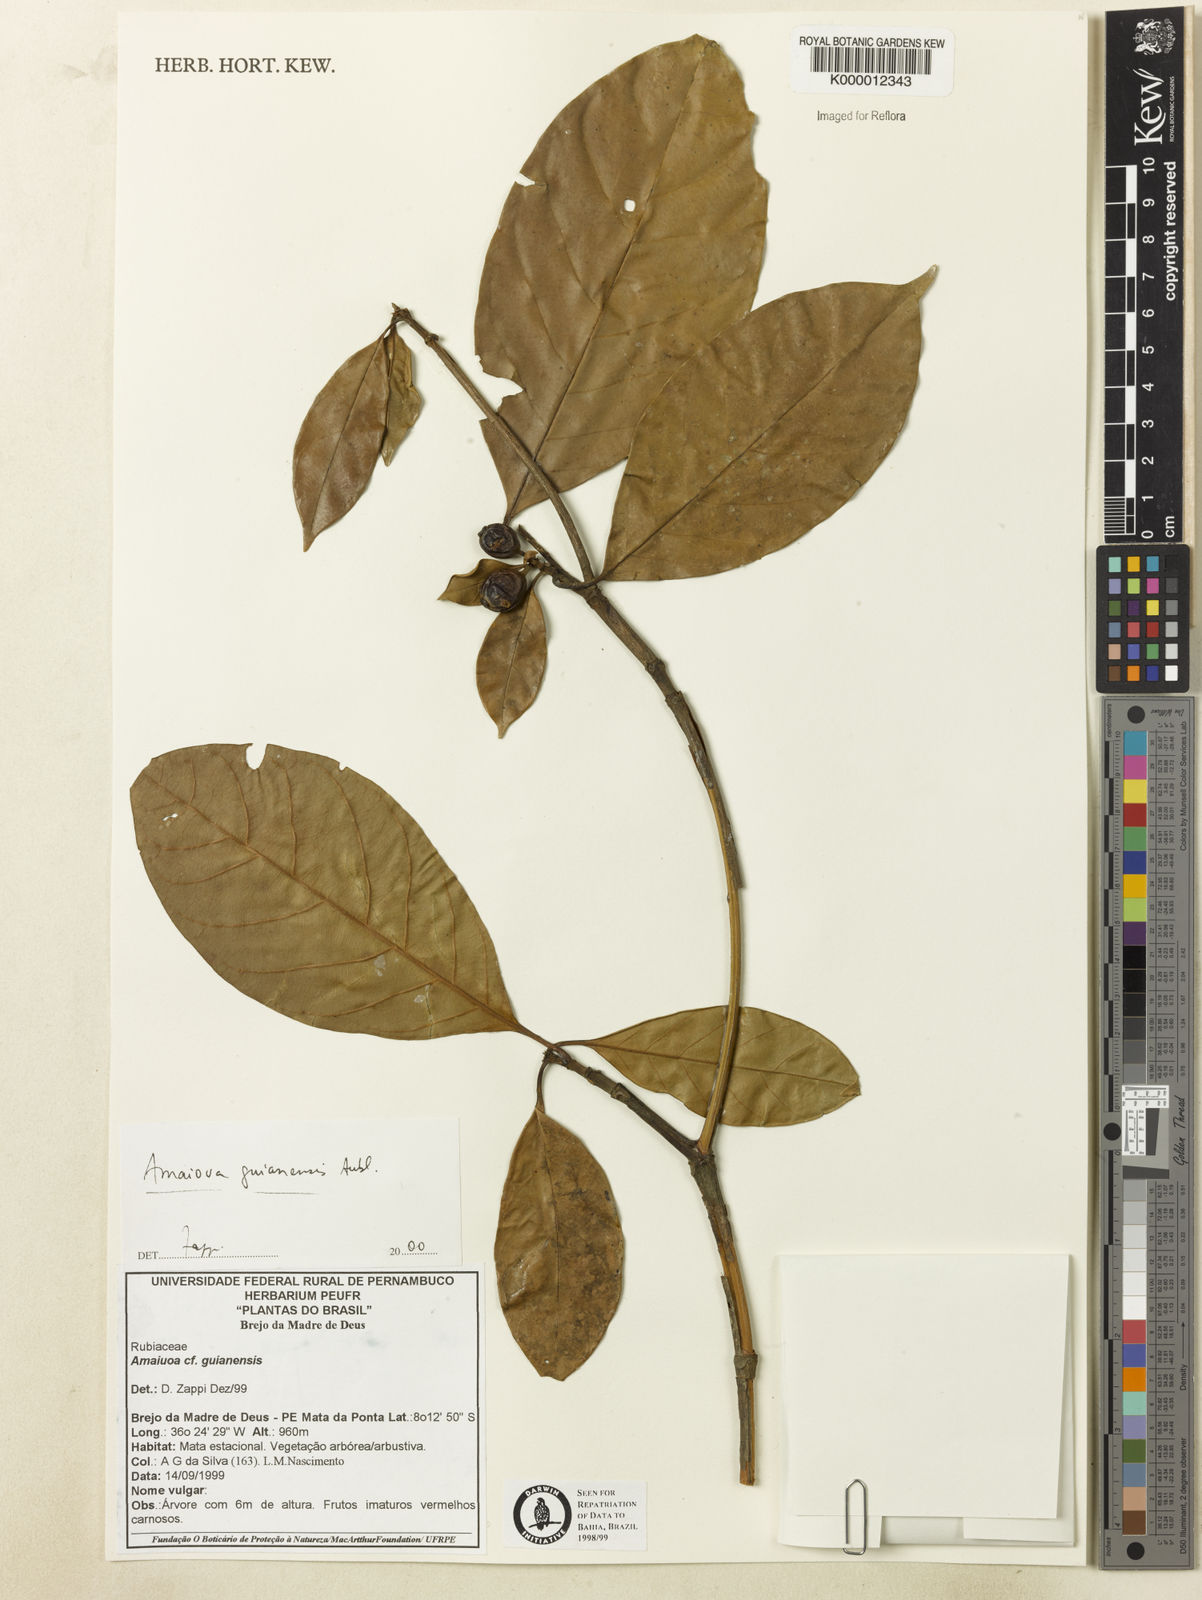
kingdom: Plantae
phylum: Tracheophyta
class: Magnoliopsida
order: Gentianales
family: Rubiaceae
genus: Amaioua
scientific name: Amaioua guianensis
